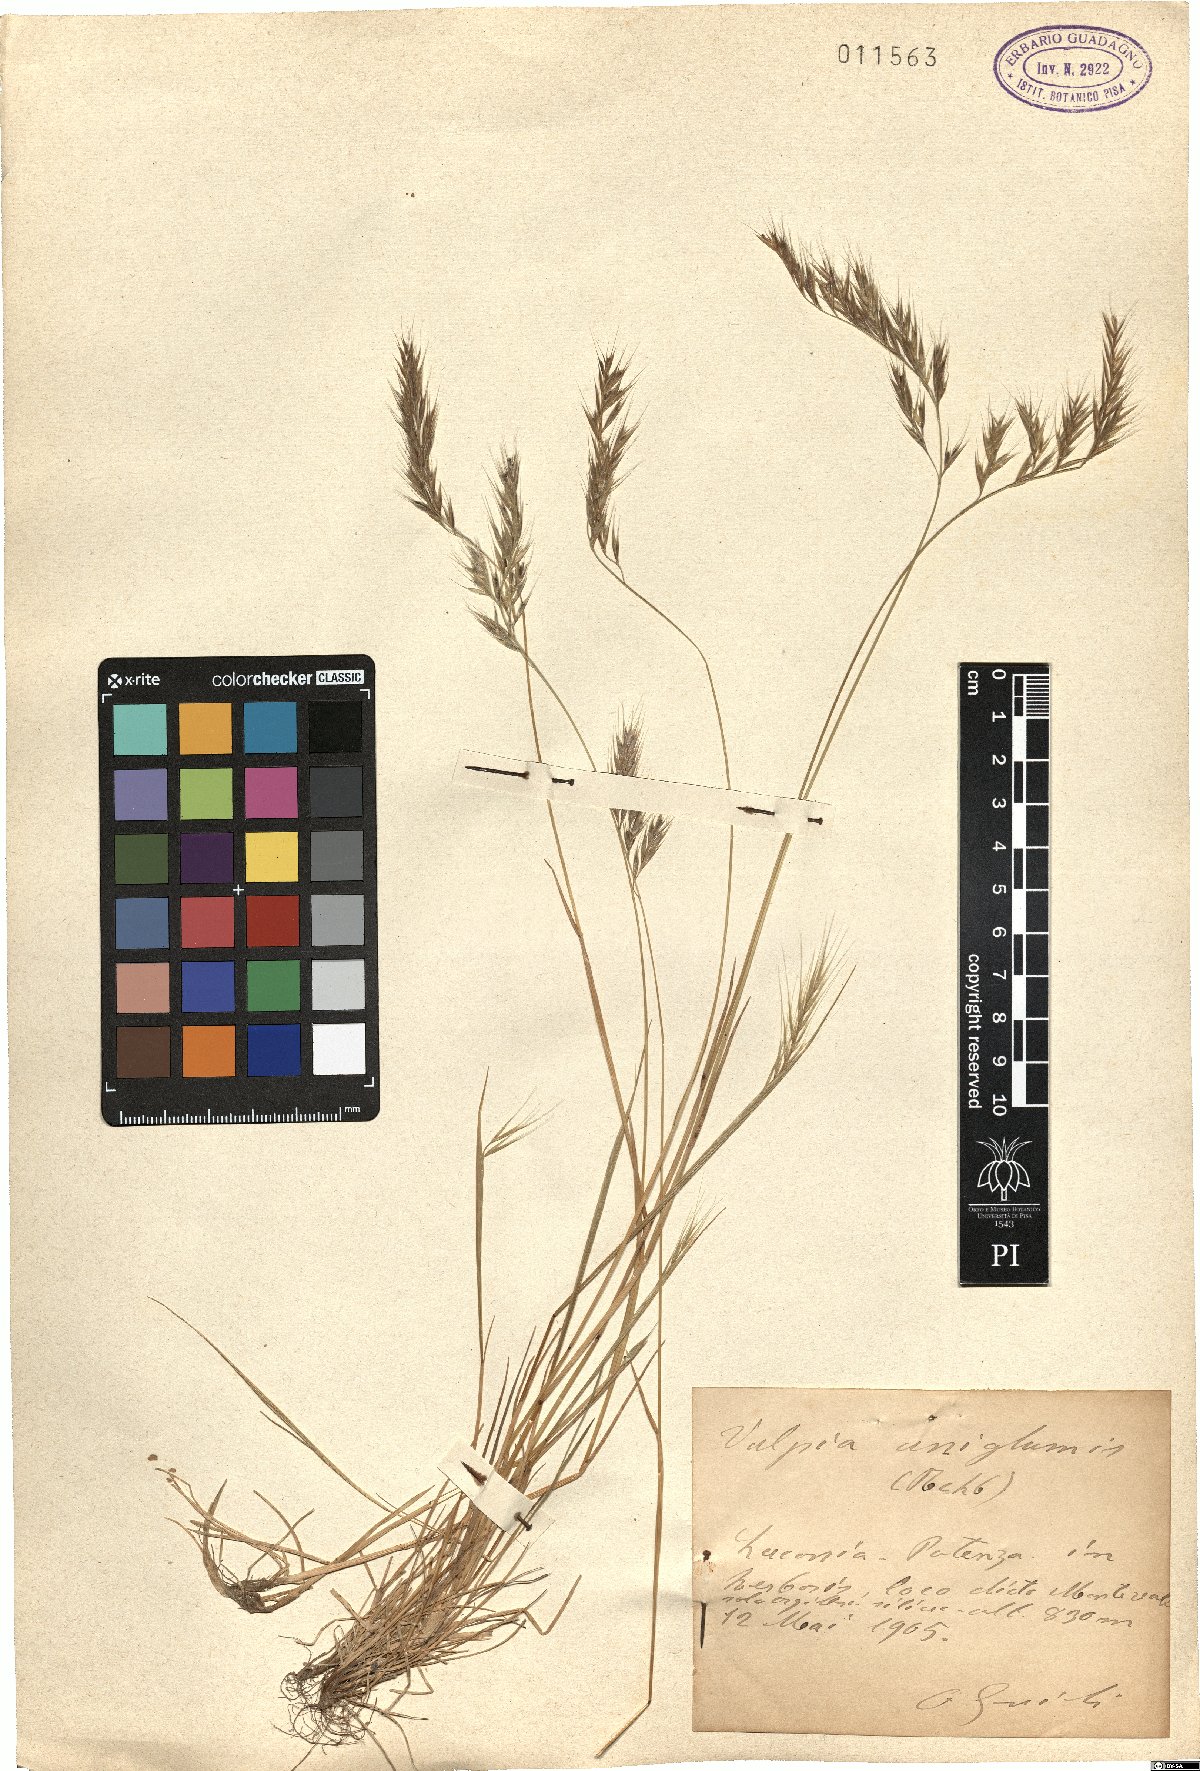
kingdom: Plantae
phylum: Tracheophyta
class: Liliopsida
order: Poales
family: Poaceae
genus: Festuca
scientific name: Festuca bromoides
